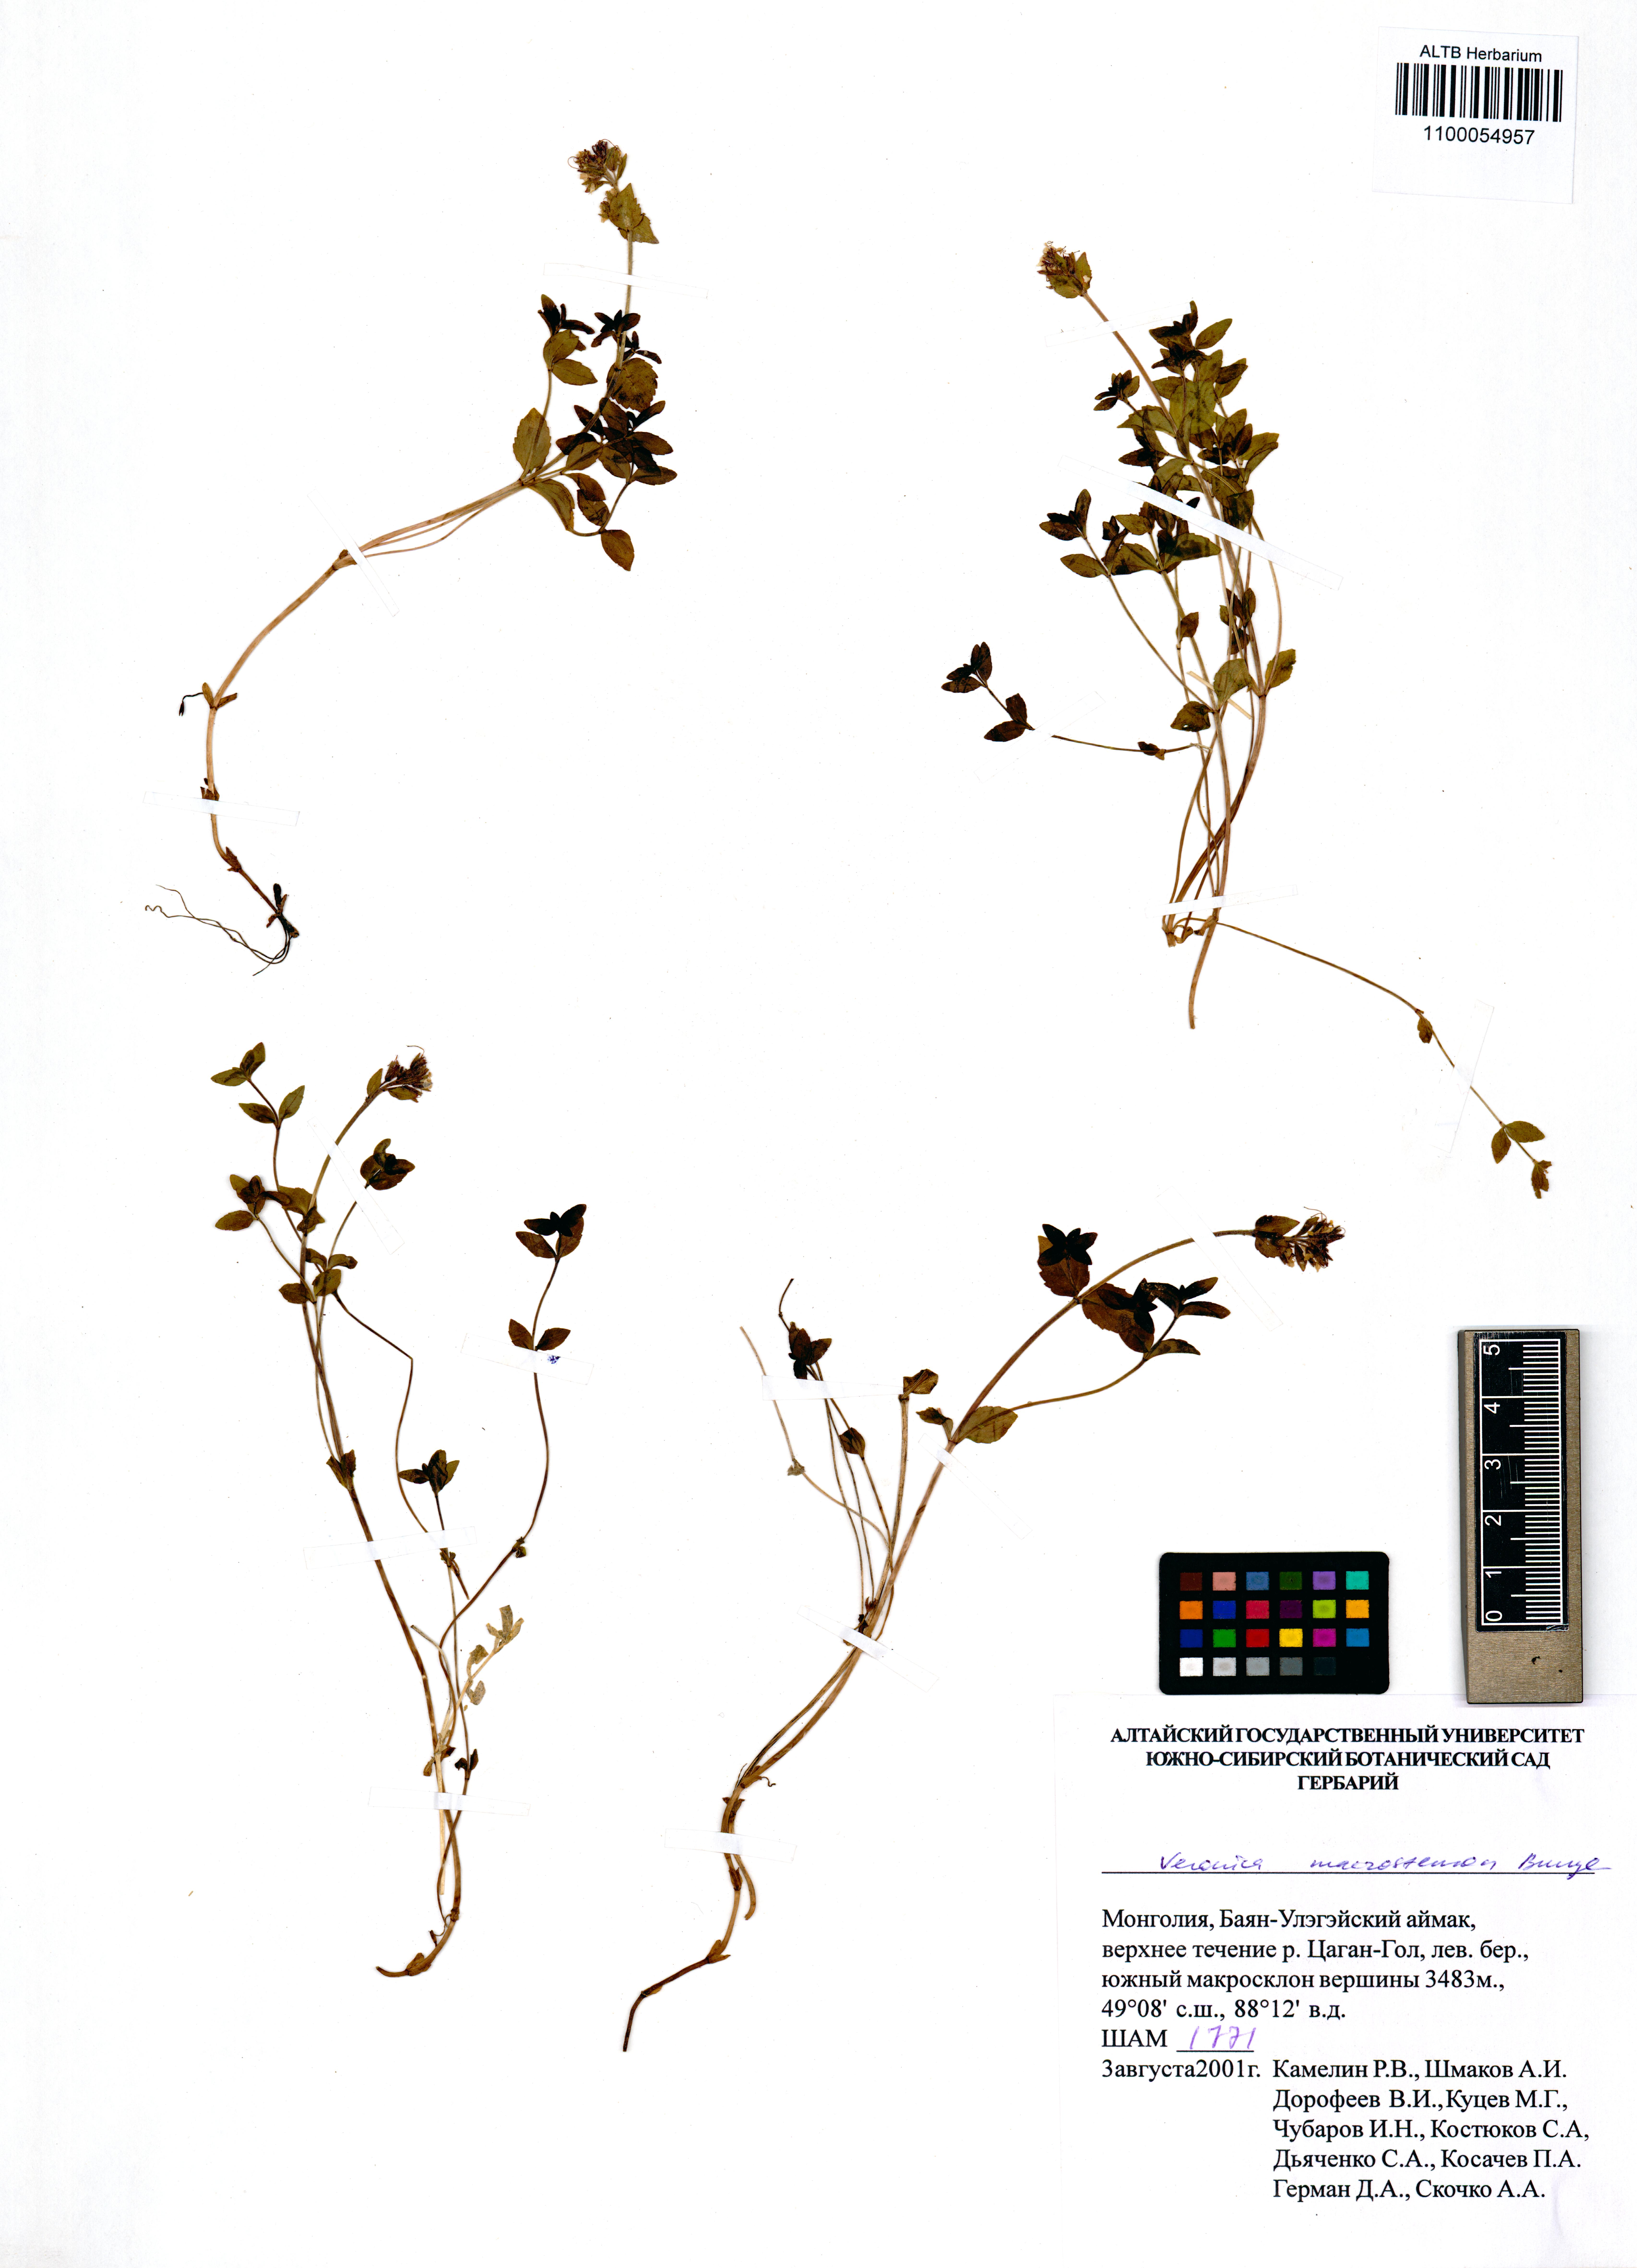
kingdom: Plantae
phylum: Tracheophyta
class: Magnoliopsida
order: Lamiales
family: Plantaginaceae
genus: Veronica
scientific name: Veronica macrostemon
